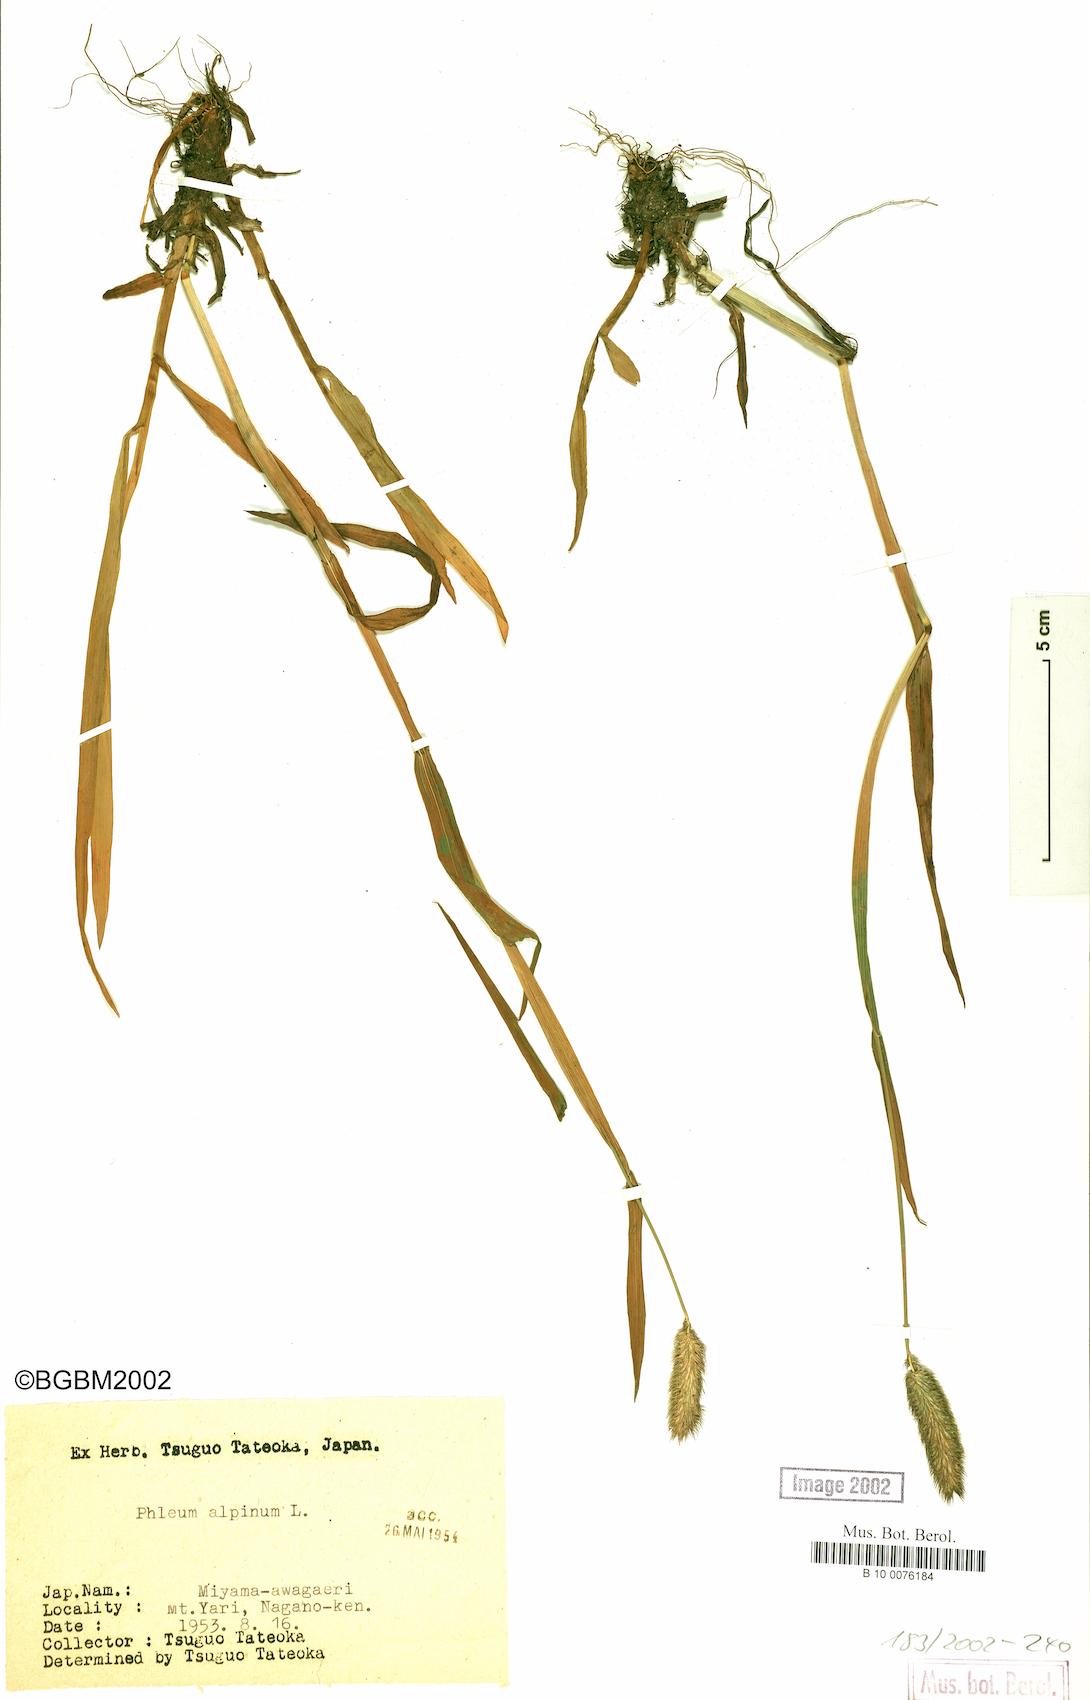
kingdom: Plantae
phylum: Tracheophyta
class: Liliopsida
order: Poales
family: Poaceae
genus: Phleum
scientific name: Phleum alpinum
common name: Alpine cat's-tail
